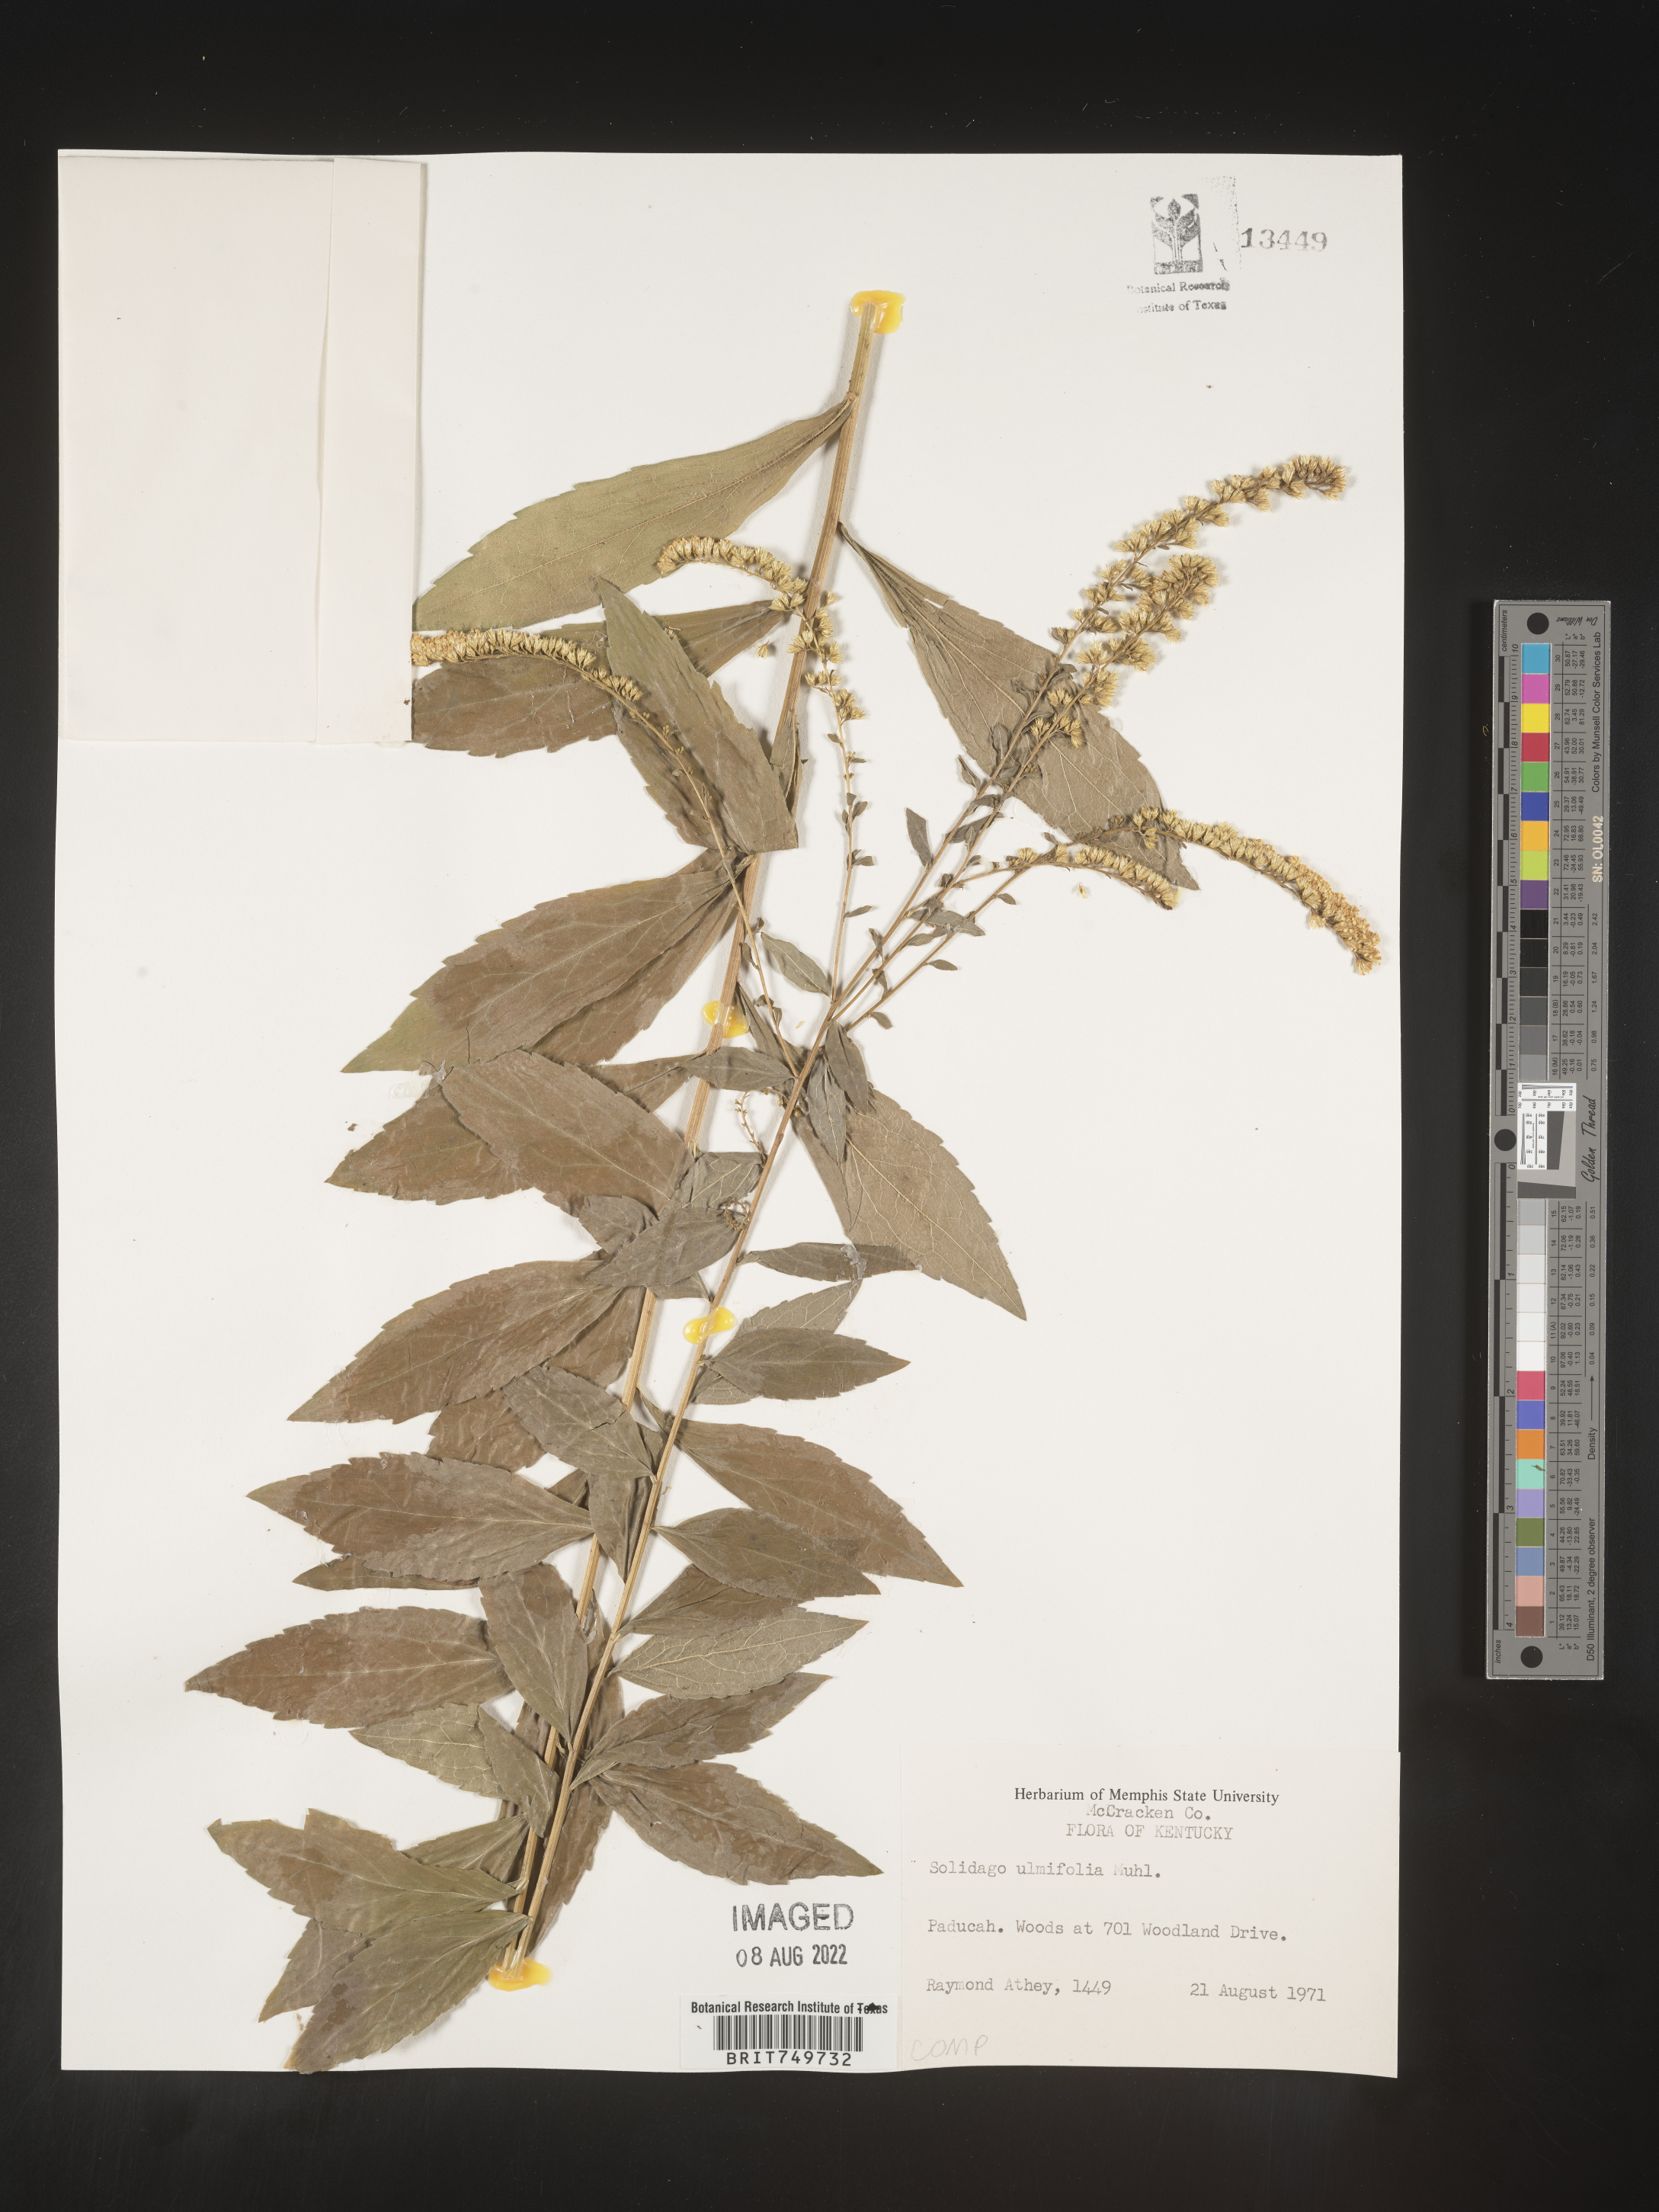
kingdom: Plantae
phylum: Tracheophyta
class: Magnoliopsida
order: Asterales
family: Asteraceae
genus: Solidago
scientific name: Solidago ulmifolia
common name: Elm-leaf goldenrod
